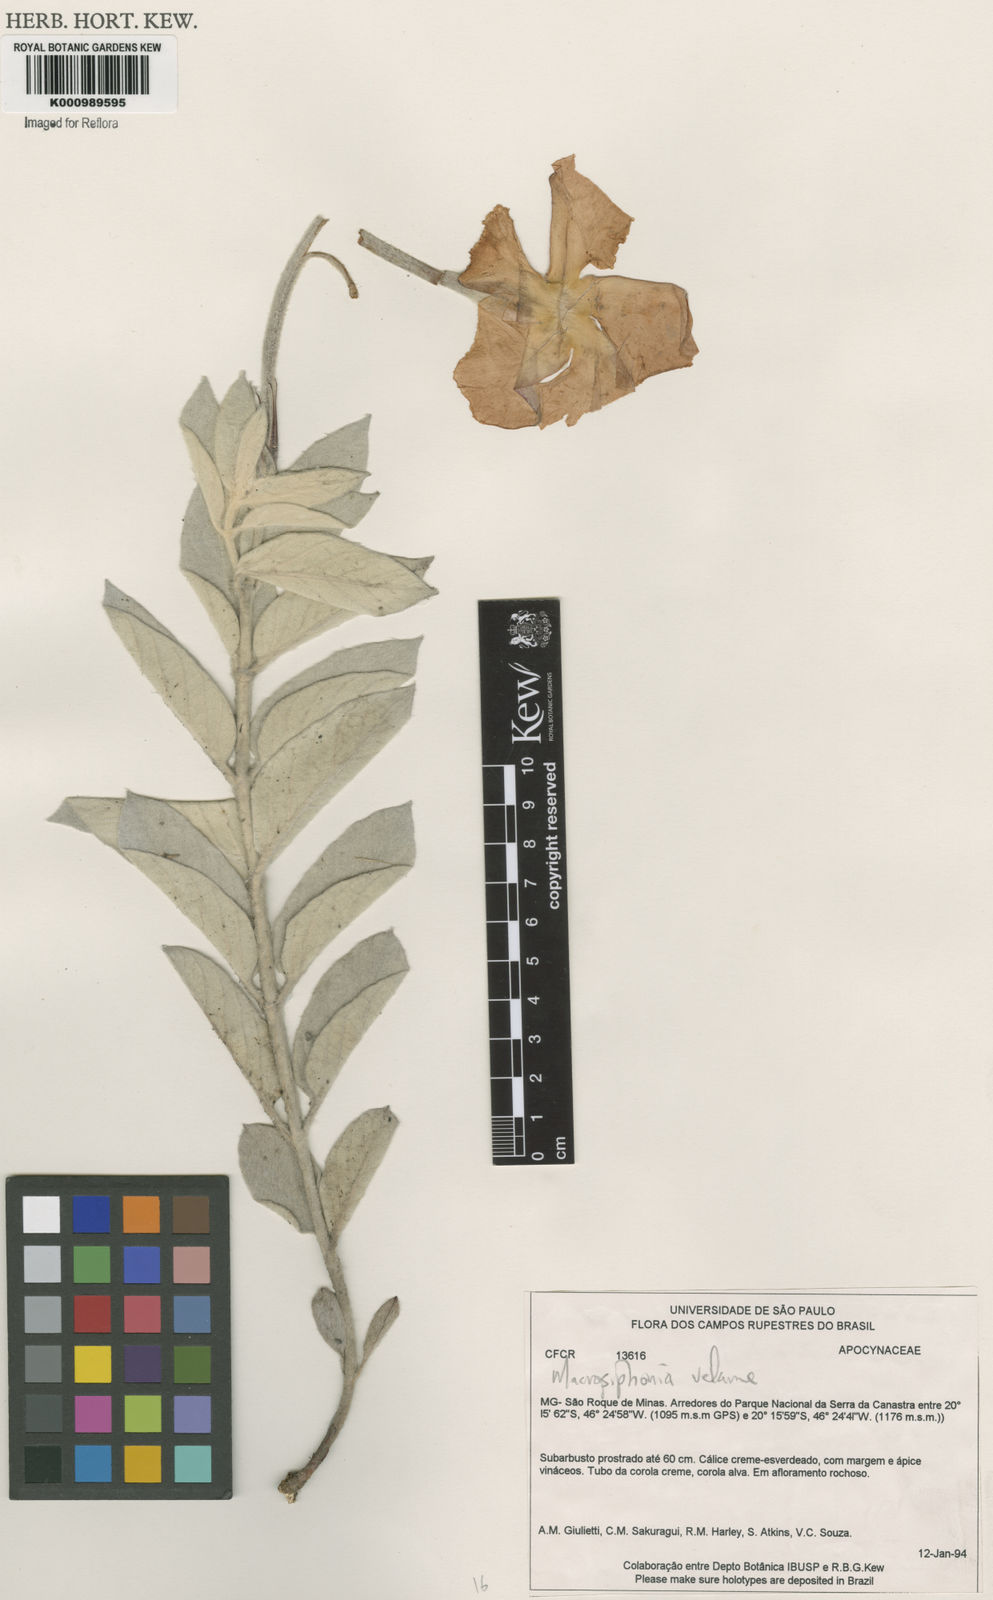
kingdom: Plantae
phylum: Tracheophyta
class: Magnoliopsida
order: Gentianales
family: Apocynaceae
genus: Mandevilla
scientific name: Mandevilla velame
